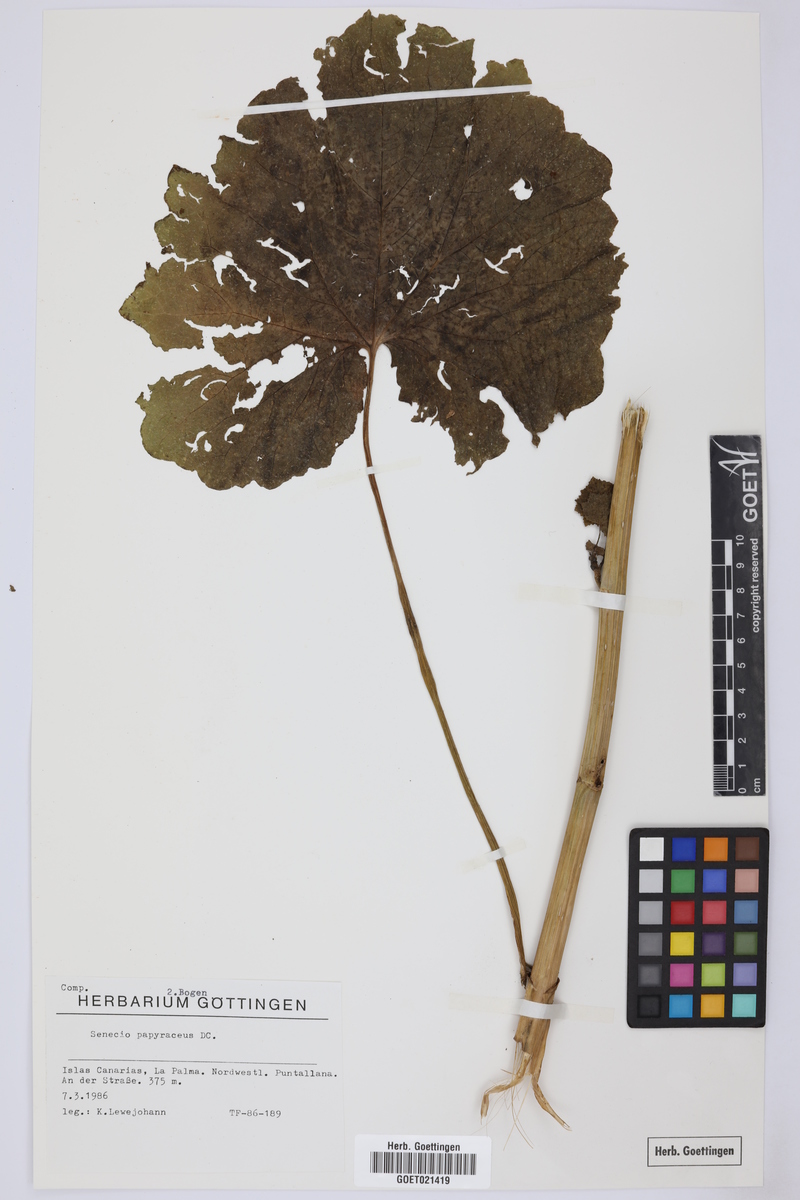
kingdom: Plantae
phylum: Tracheophyta
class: Magnoliopsida
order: Asterales
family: Asteraceae
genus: Pericallis
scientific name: Pericallis papyracea
